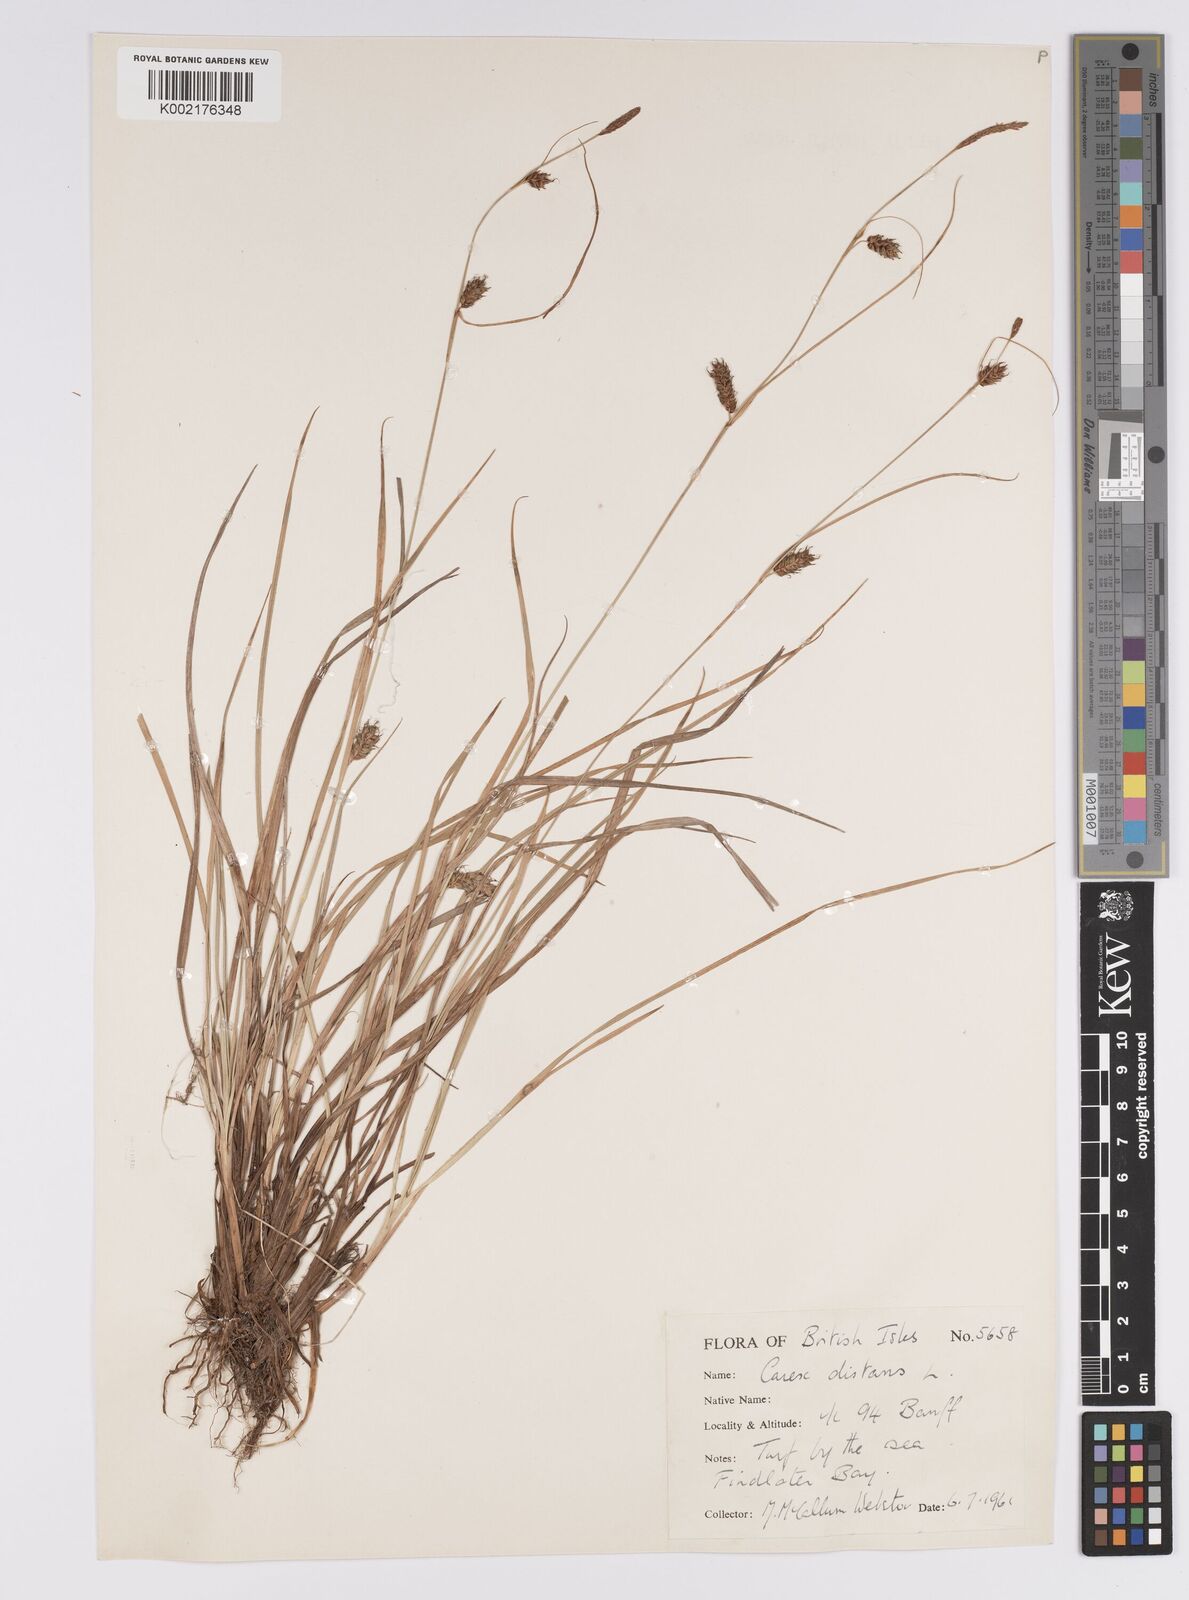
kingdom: Plantae
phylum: Tracheophyta
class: Liliopsida
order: Poales
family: Cyperaceae
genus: Carex
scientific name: Carex distans
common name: Distant sedge
